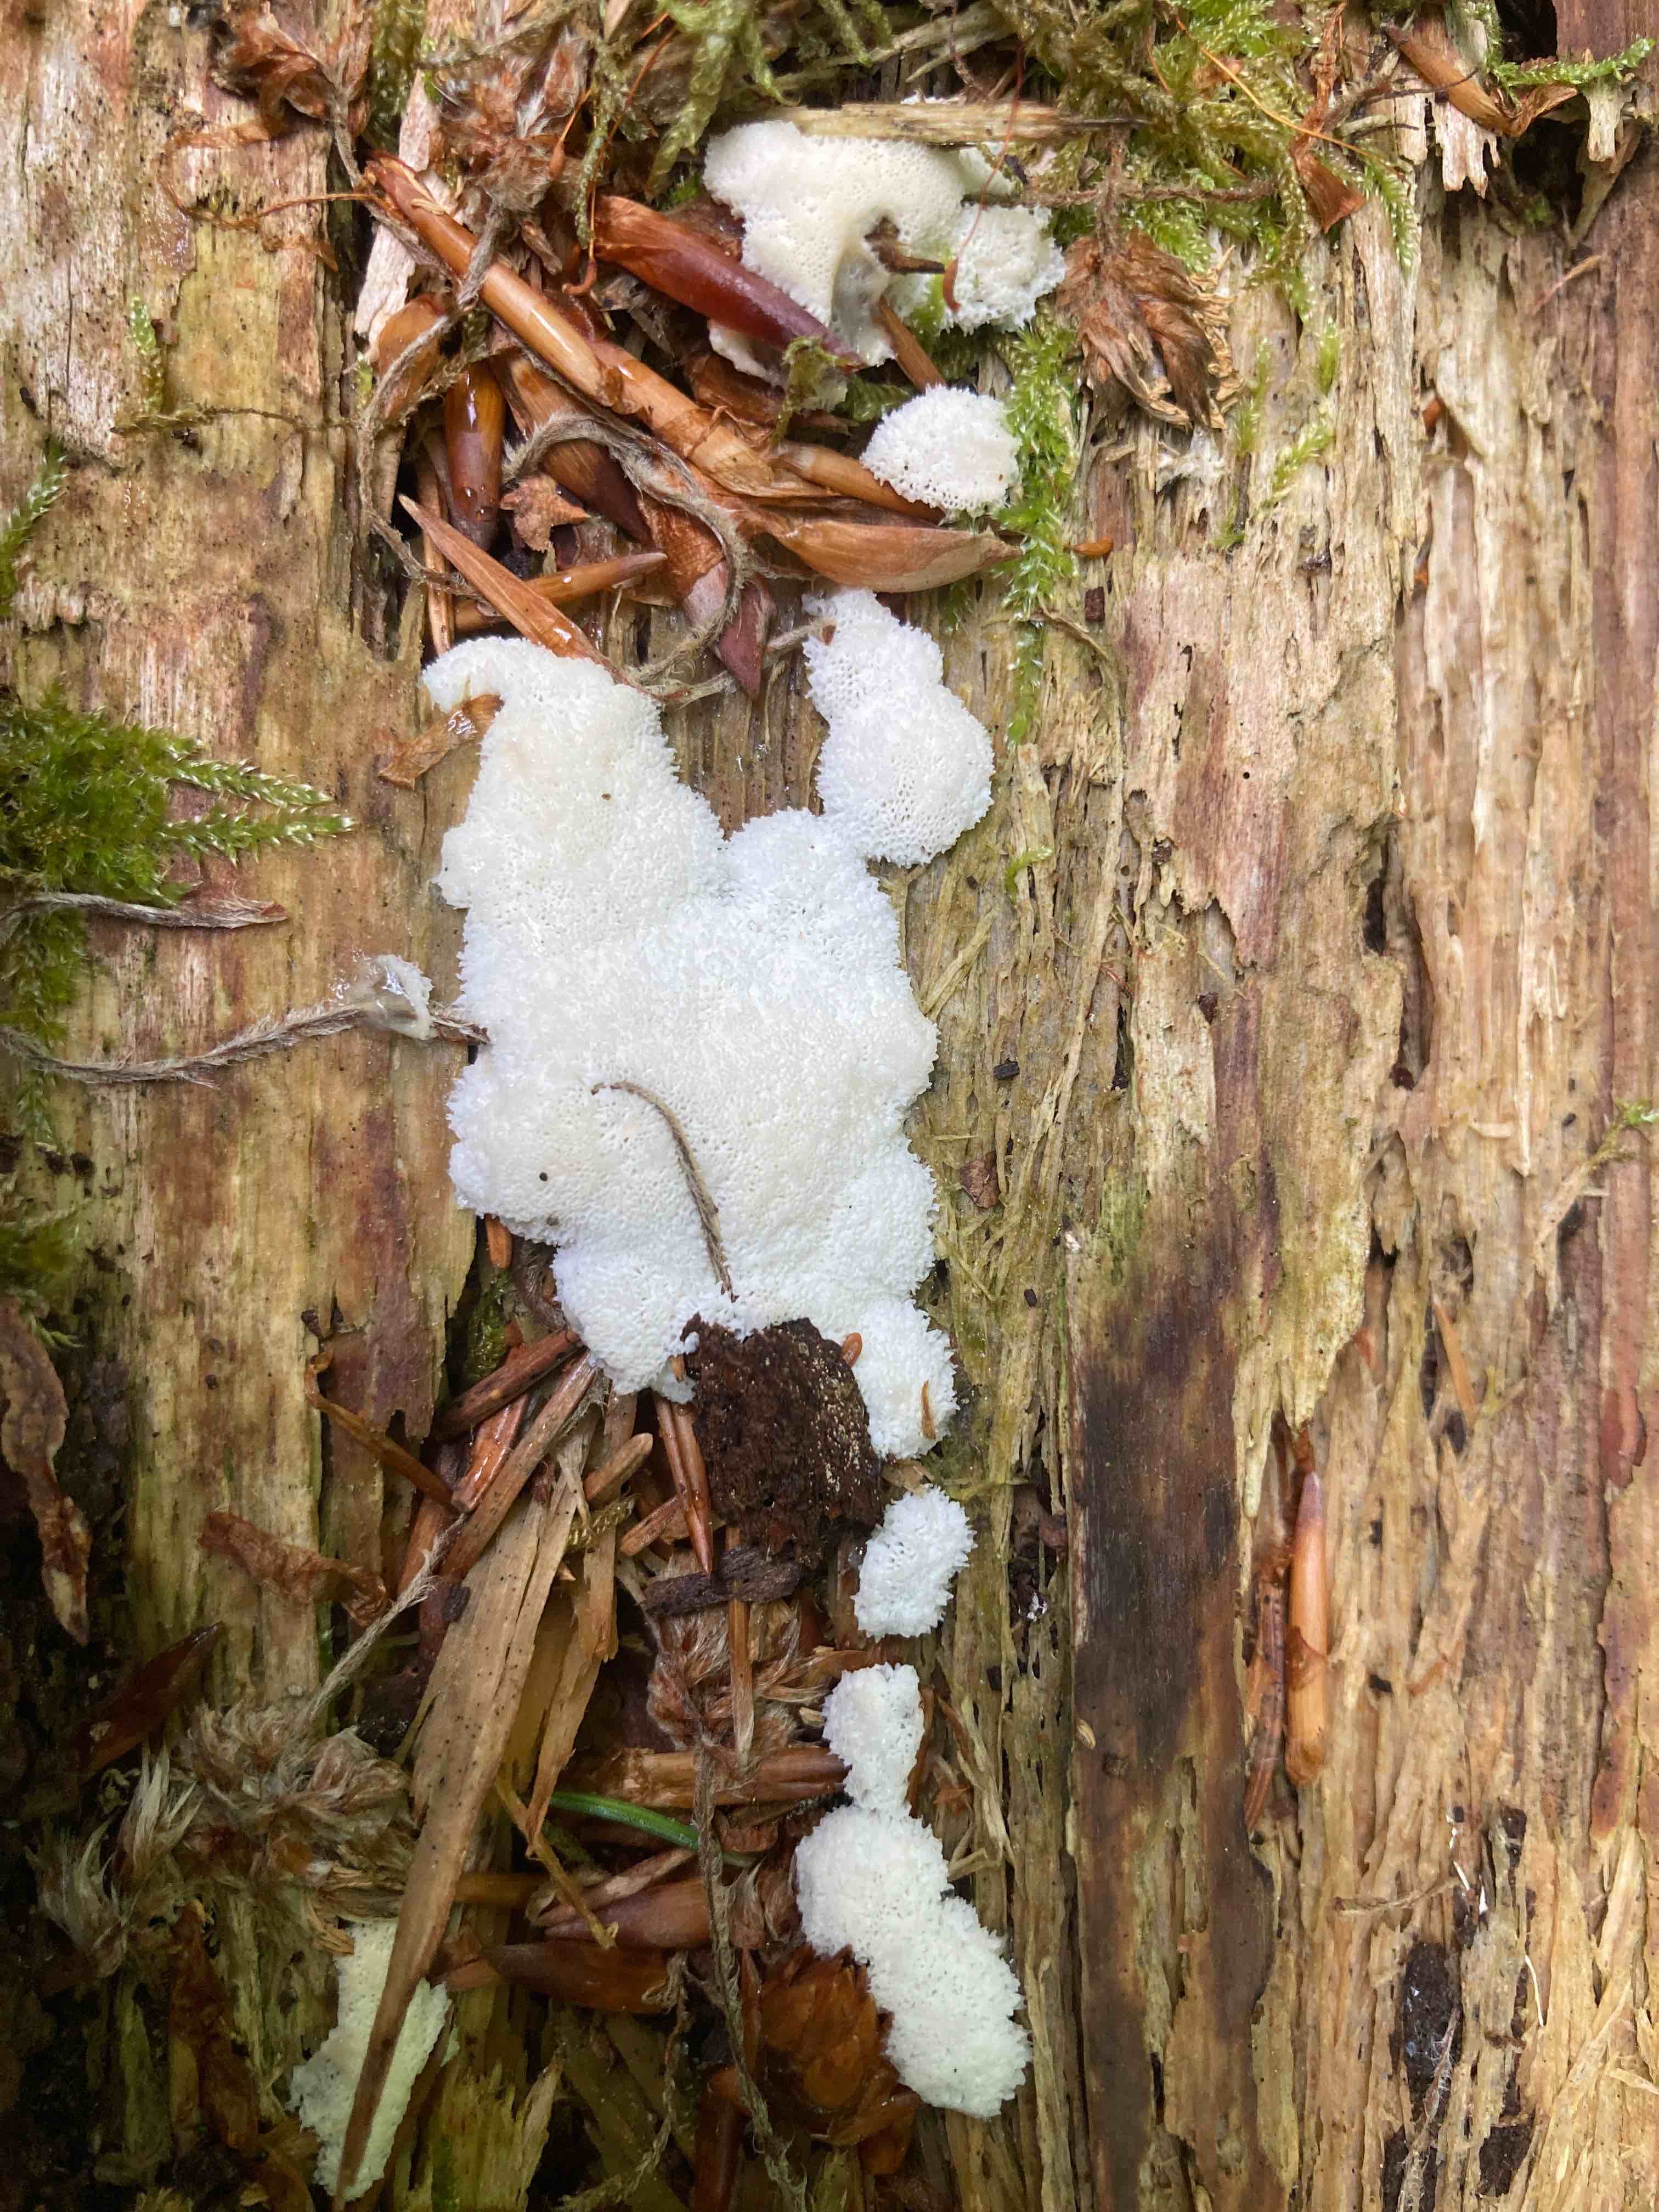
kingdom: Protozoa
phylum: Mycetozoa
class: Protosteliomycetes
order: Ceratiomyxales
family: Ceratiomyxaceae
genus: Ceratiomyxa
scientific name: Ceratiomyxa fruticulosa
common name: Honeycomb coral slime mold
